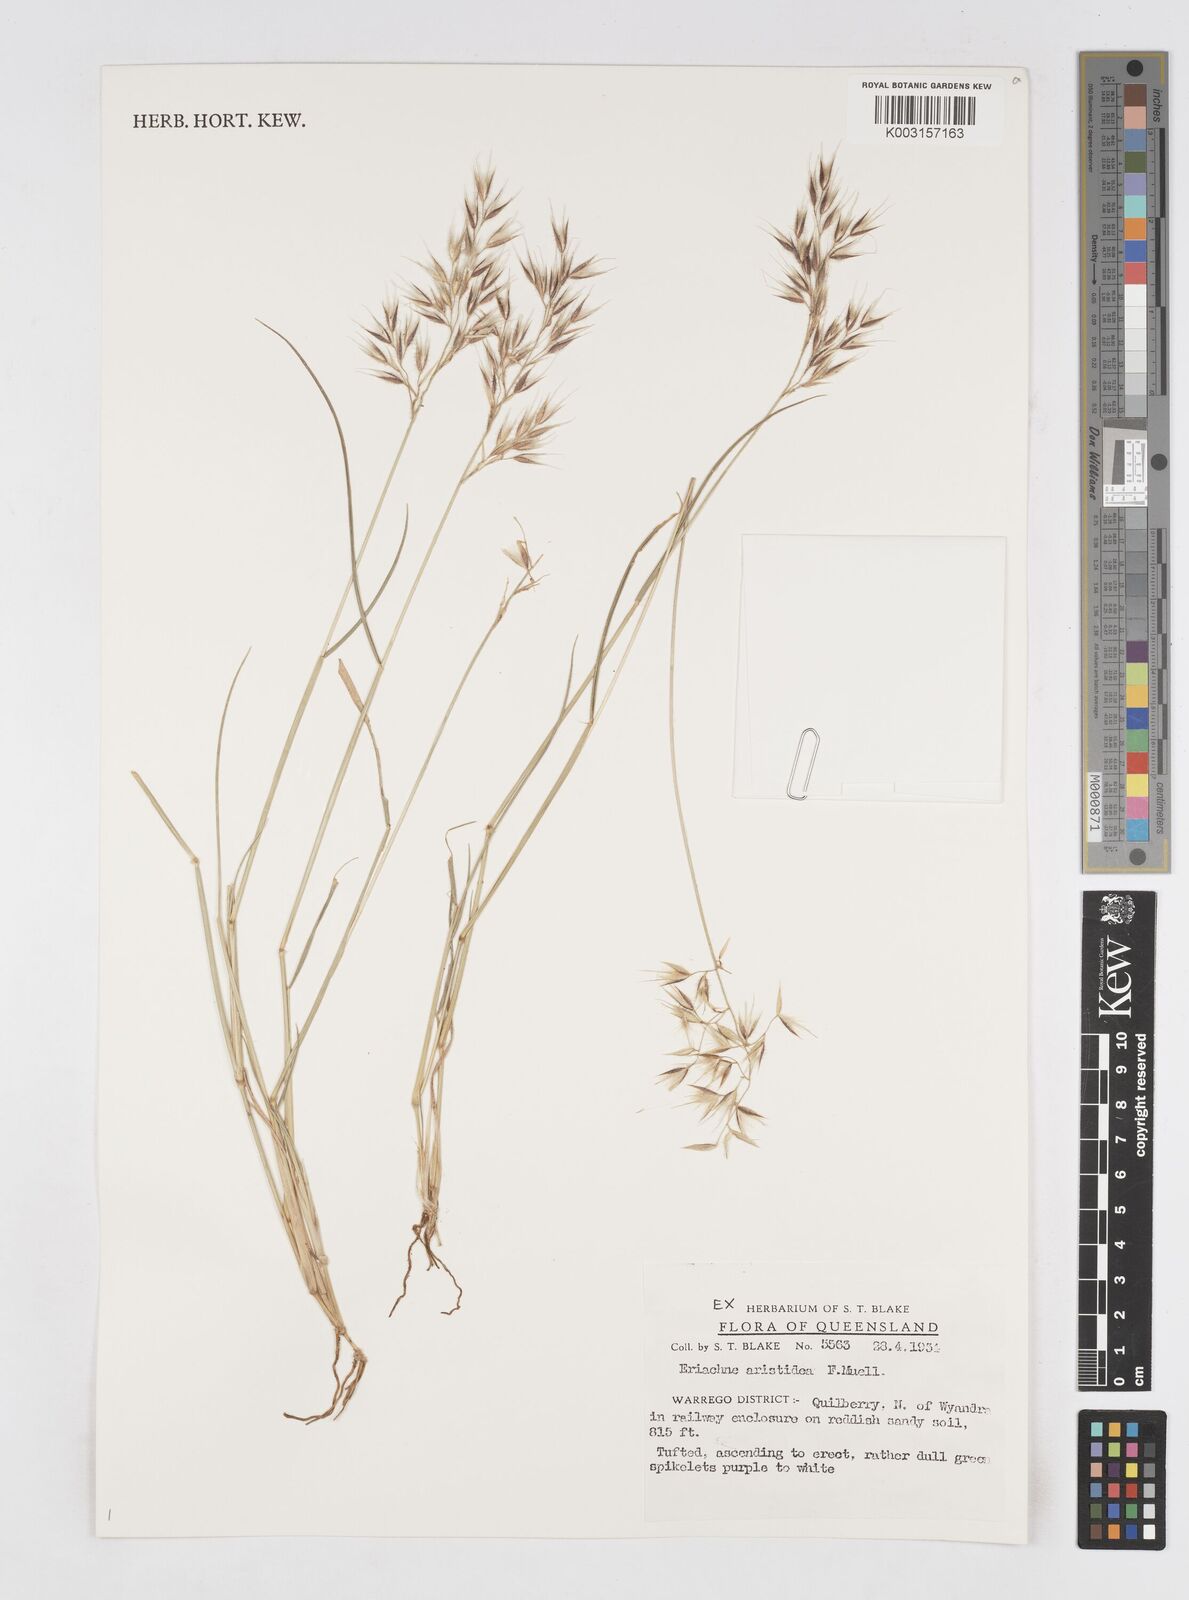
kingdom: Plantae
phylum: Tracheophyta
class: Liliopsida
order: Poales
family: Poaceae
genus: Eriachne
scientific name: Eriachne aristidea
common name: Three-awn wanderrie grass
